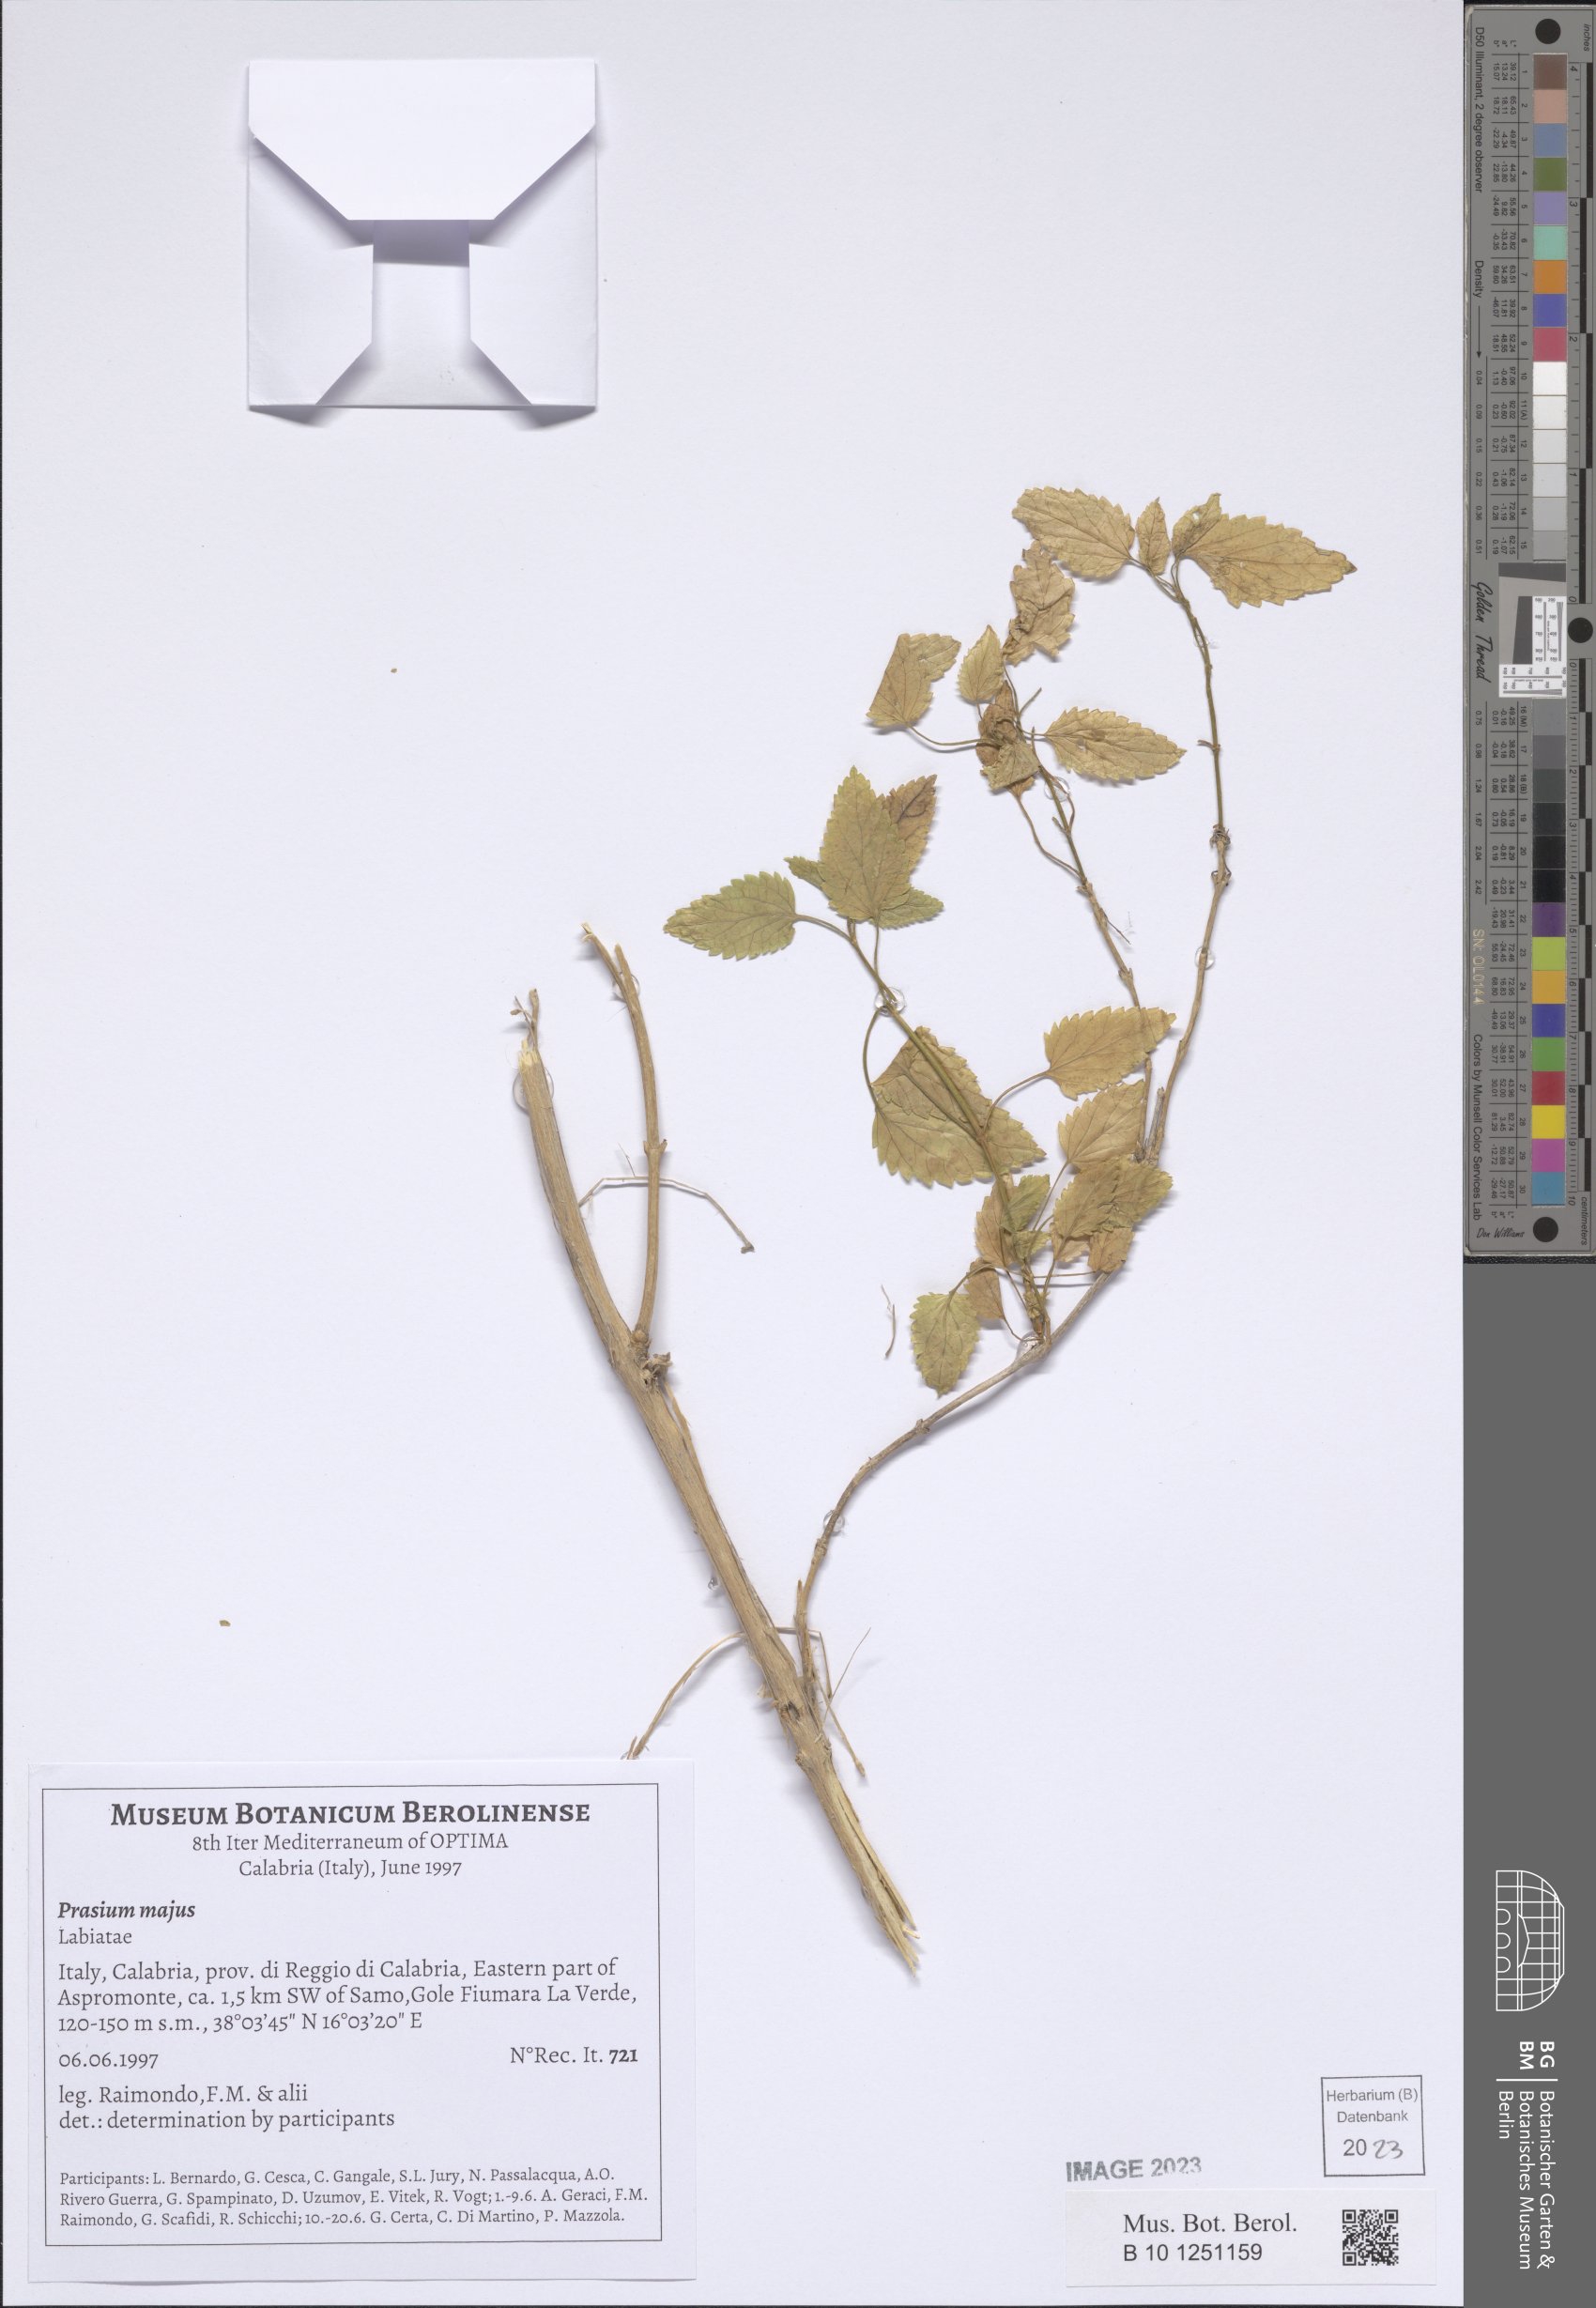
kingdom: Plantae
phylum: Tracheophyta
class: Magnoliopsida
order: Lamiales
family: Lamiaceae
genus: Prasium
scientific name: Prasium majus
